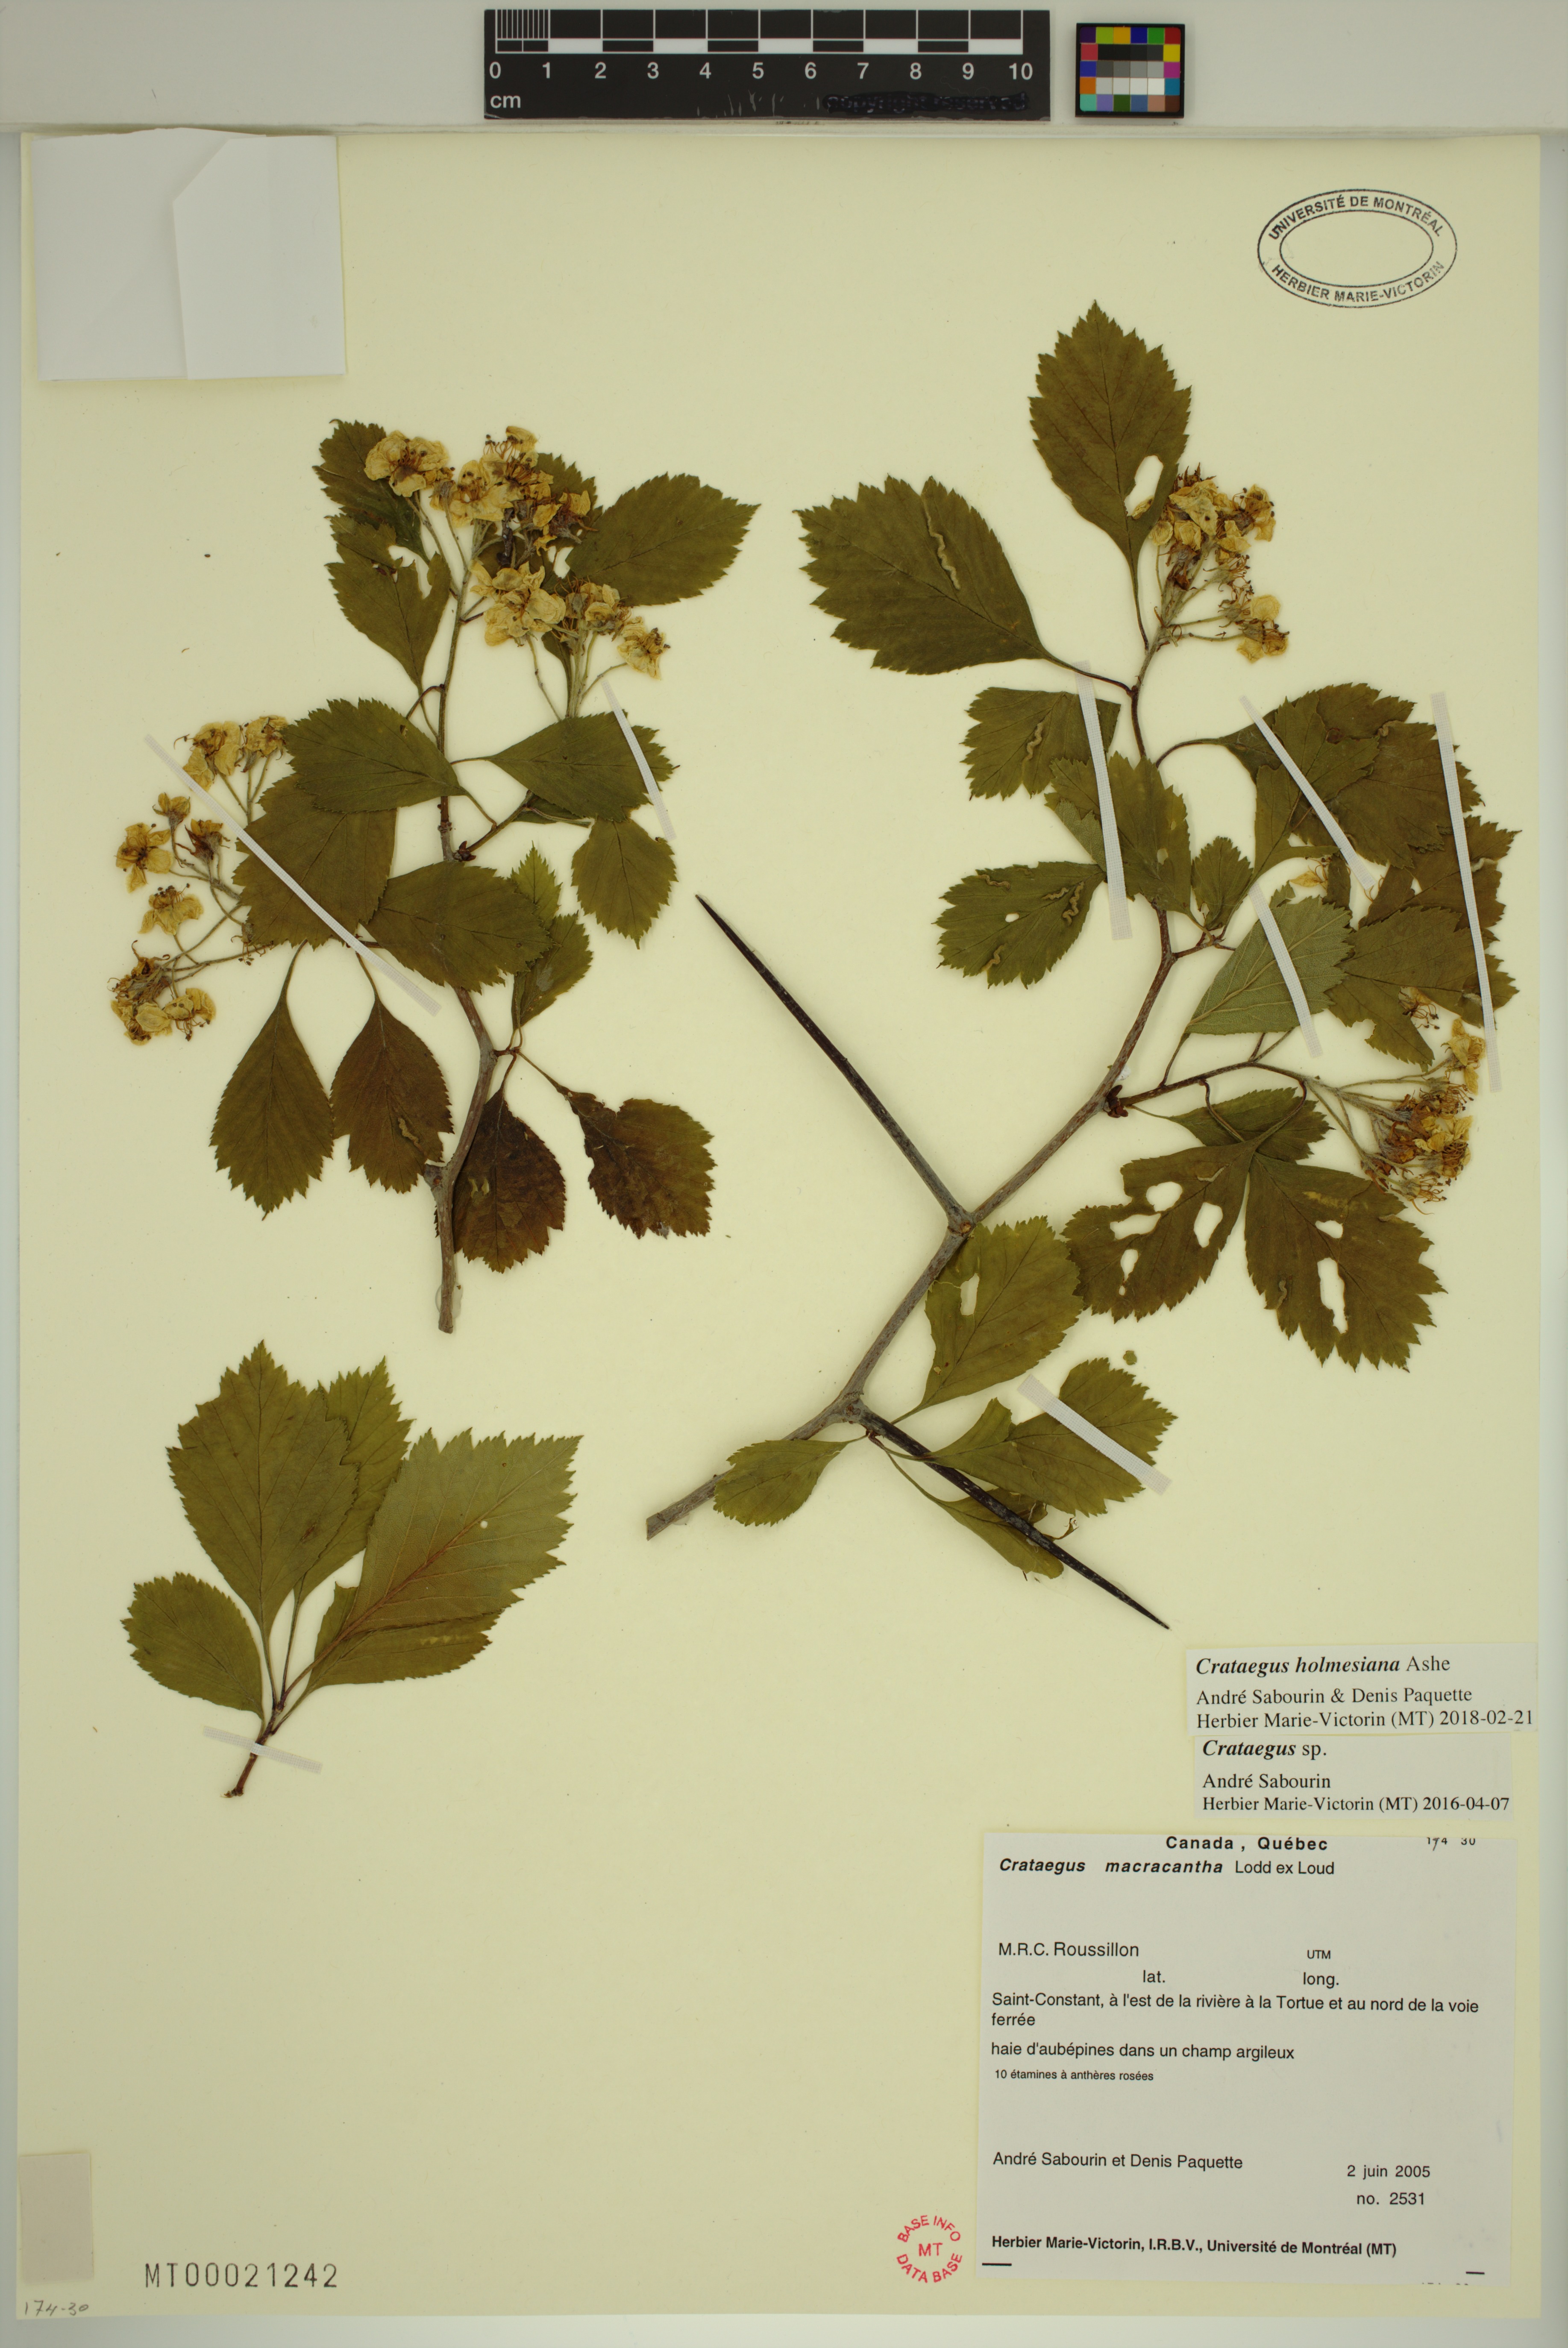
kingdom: Plantae
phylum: Tracheophyta
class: Magnoliopsida
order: Rosales
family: Rosaceae
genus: Crataegus
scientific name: Crataegus holmesiana
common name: Holmes' hawthorn
